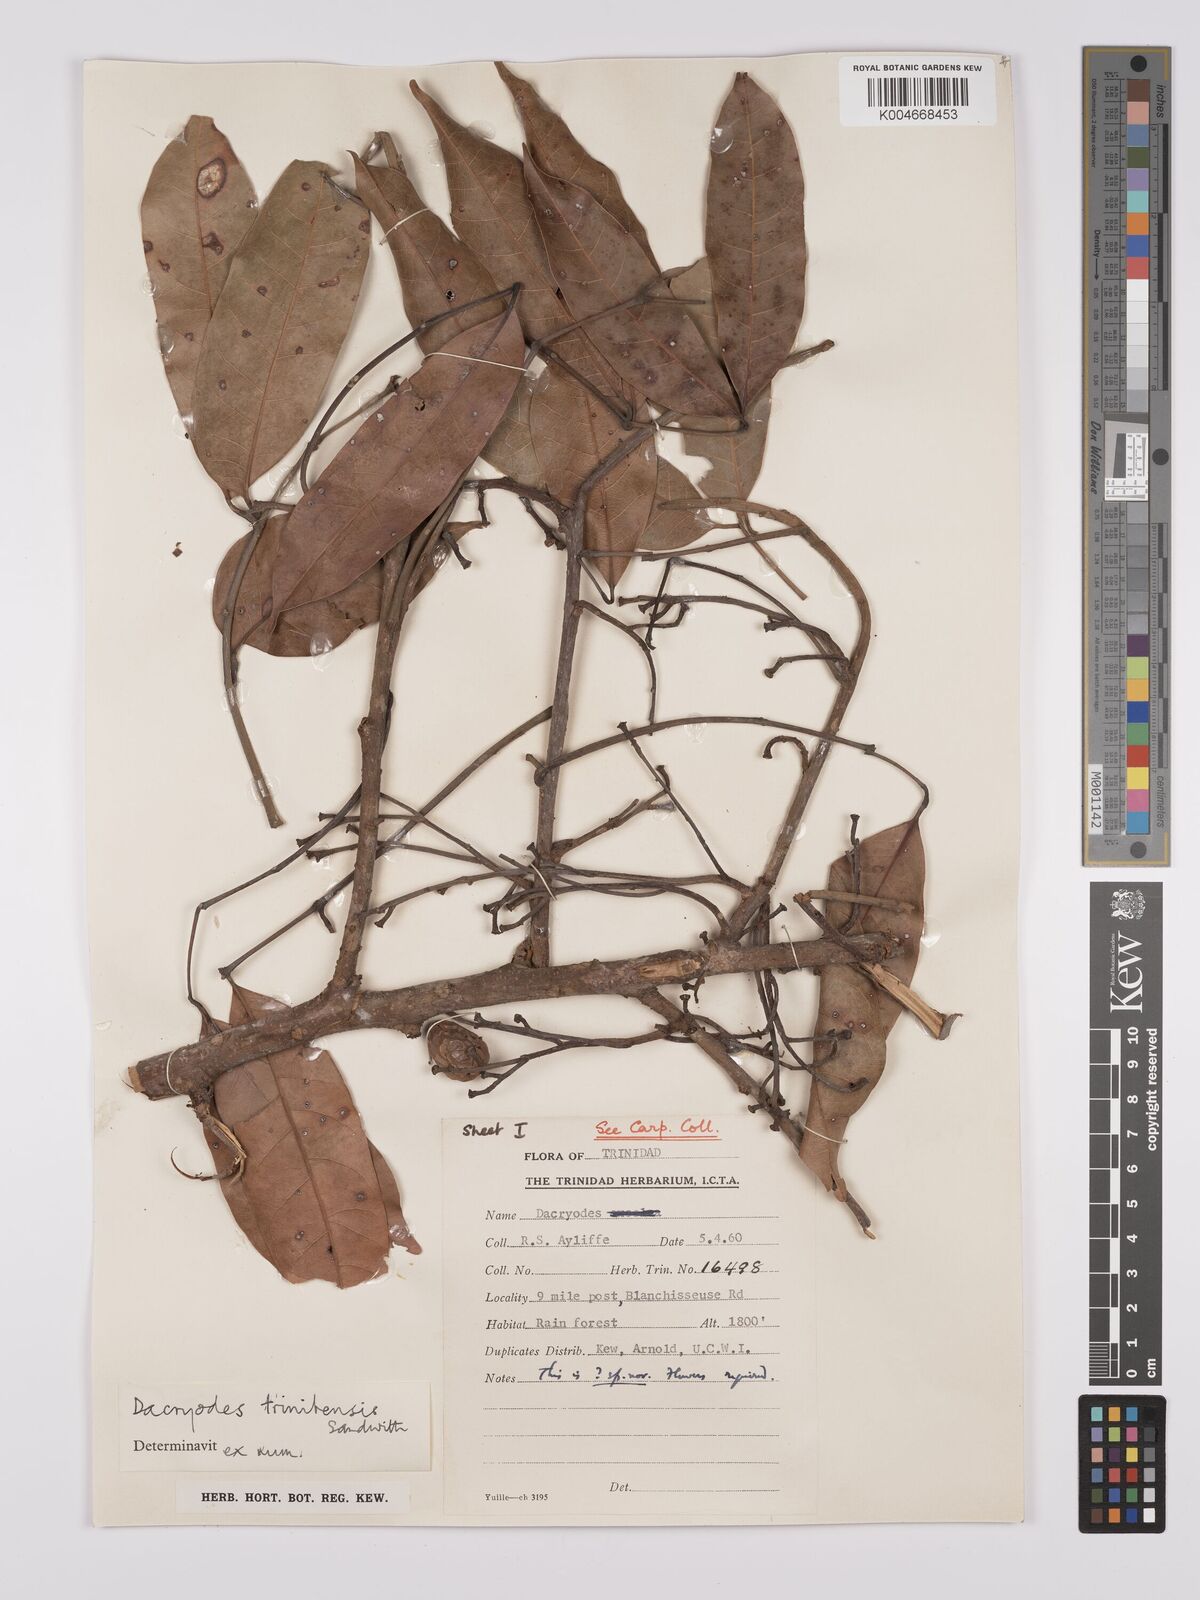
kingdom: Plantae
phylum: Tracheophyta
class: Magnoliopsida
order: Sapindales
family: Burseraceae
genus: Dacryodes
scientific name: Dacryodes belemensis
